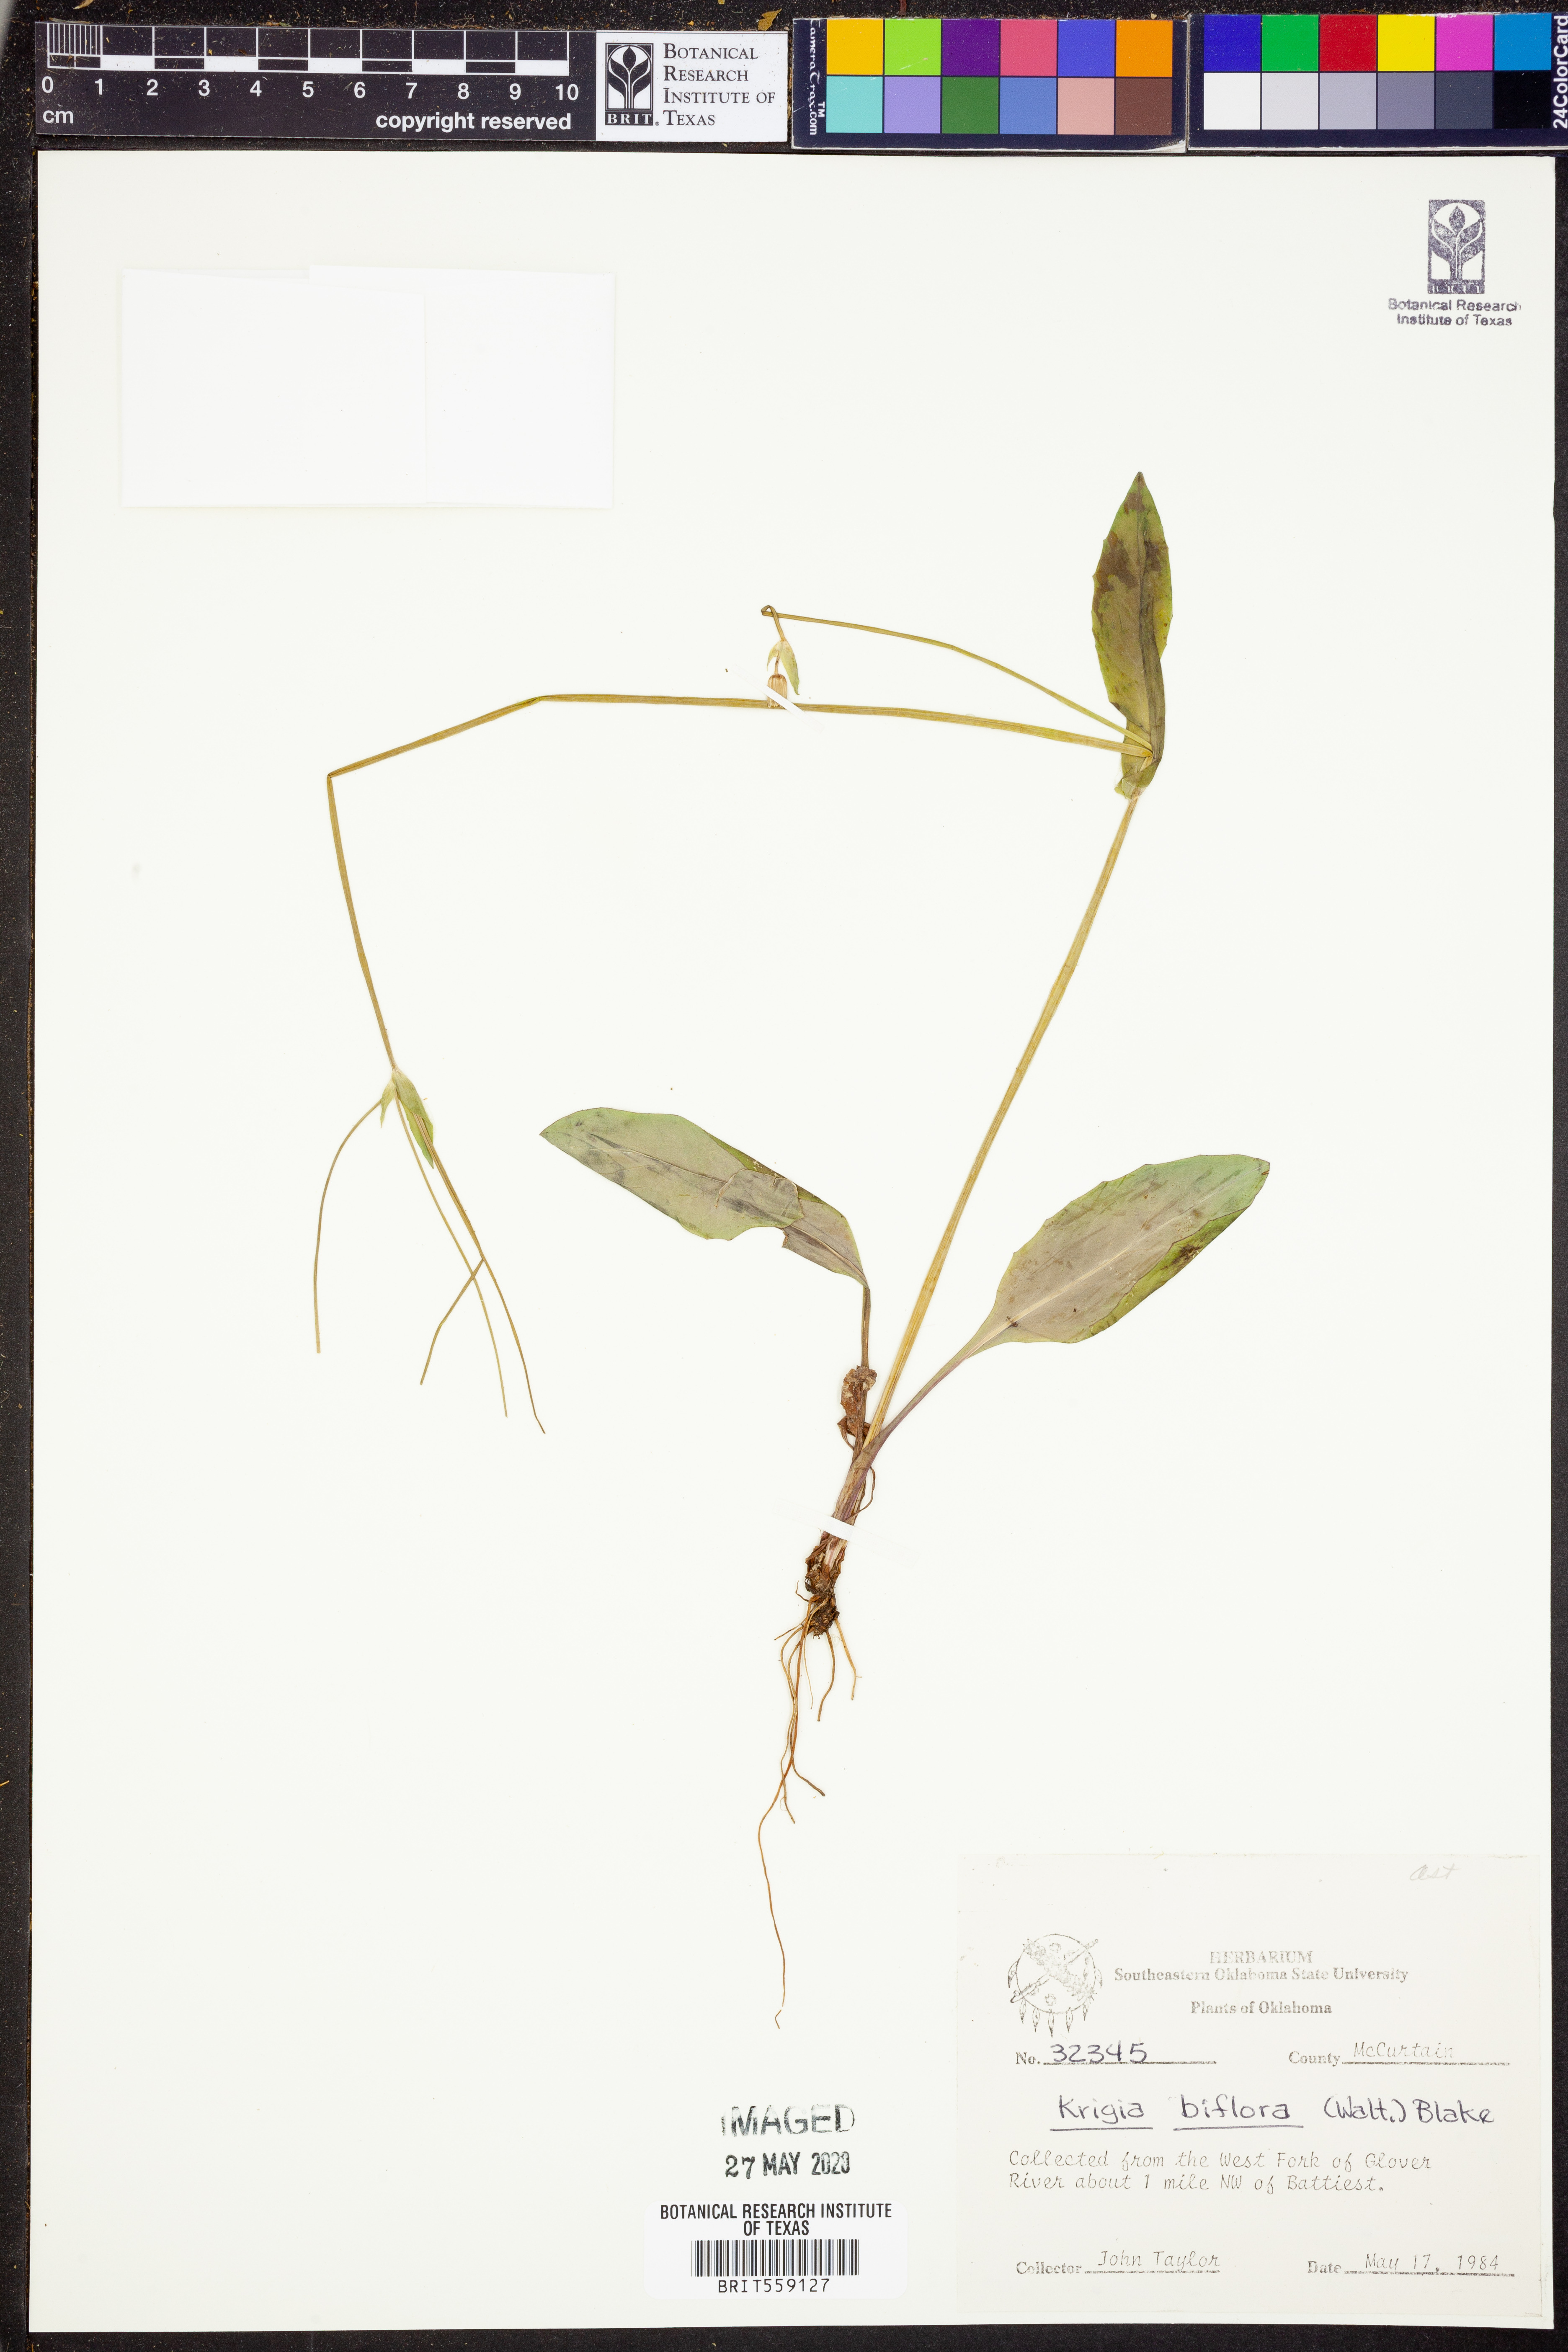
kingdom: Plantae
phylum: Tracheophyta
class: Magnoliopsida
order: Asterales
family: Asteraceae
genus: Krigia
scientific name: Krigia biflora
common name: Orange dwarf-dandelion
